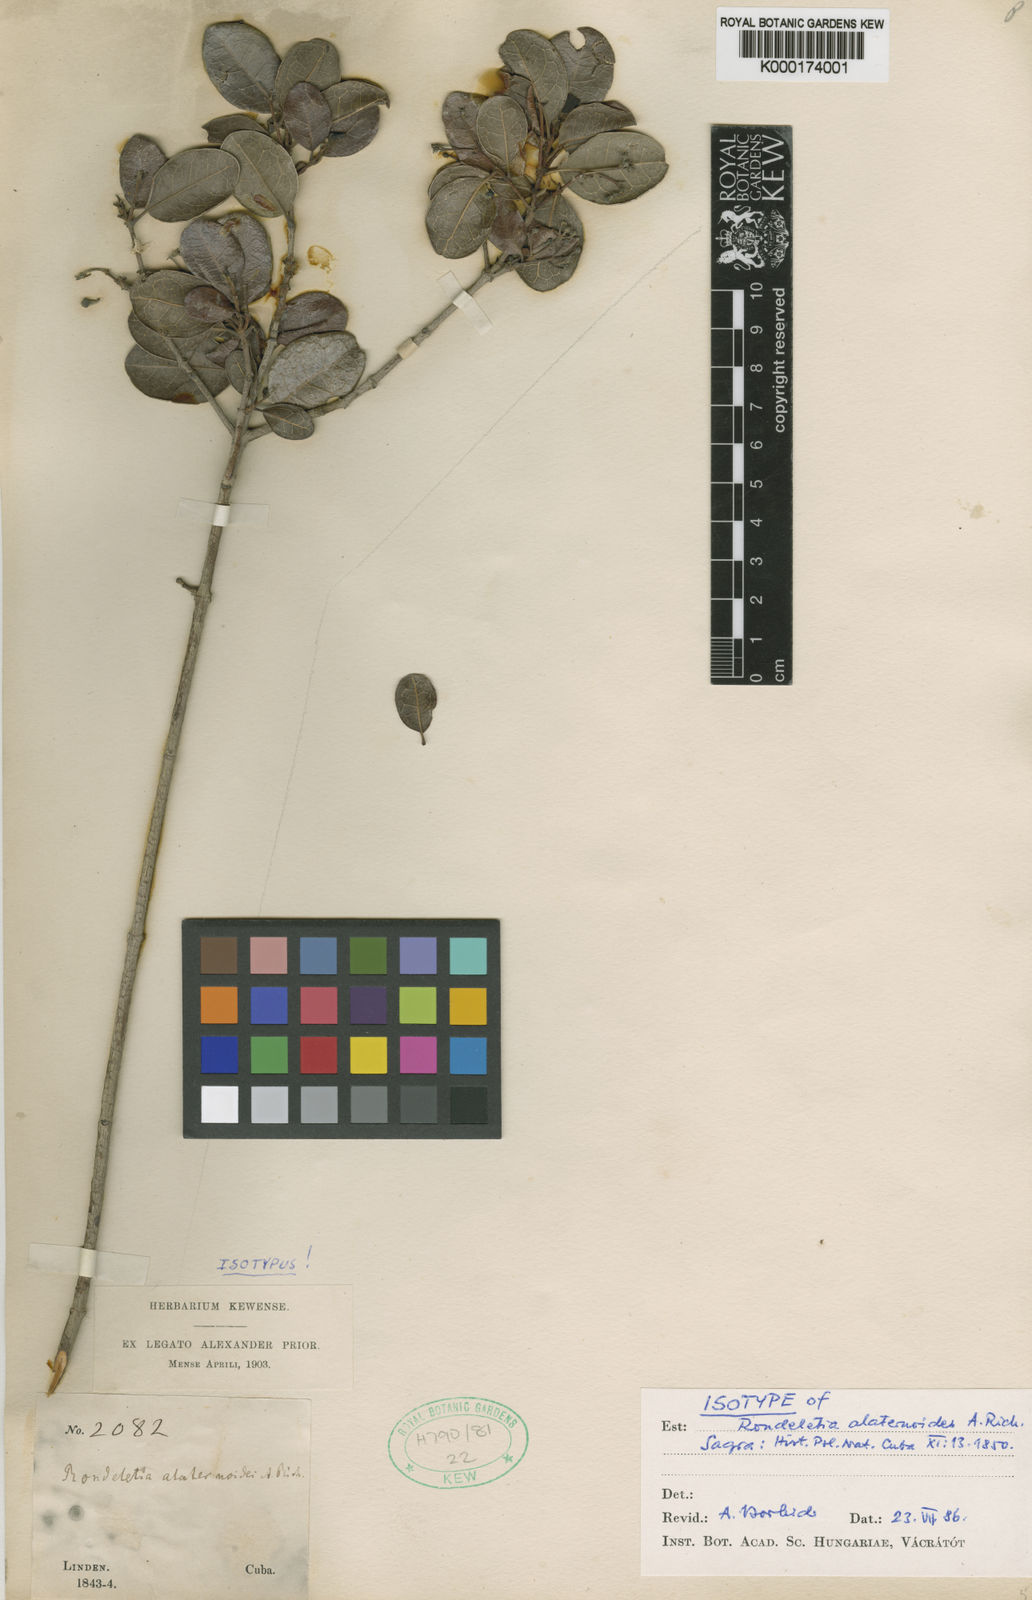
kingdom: Plantae
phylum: Tracheophyta
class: Magnoliopsida
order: Gentianales
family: Rubiaceae
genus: Rondeletia
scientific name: Rondeletia alaternoides
